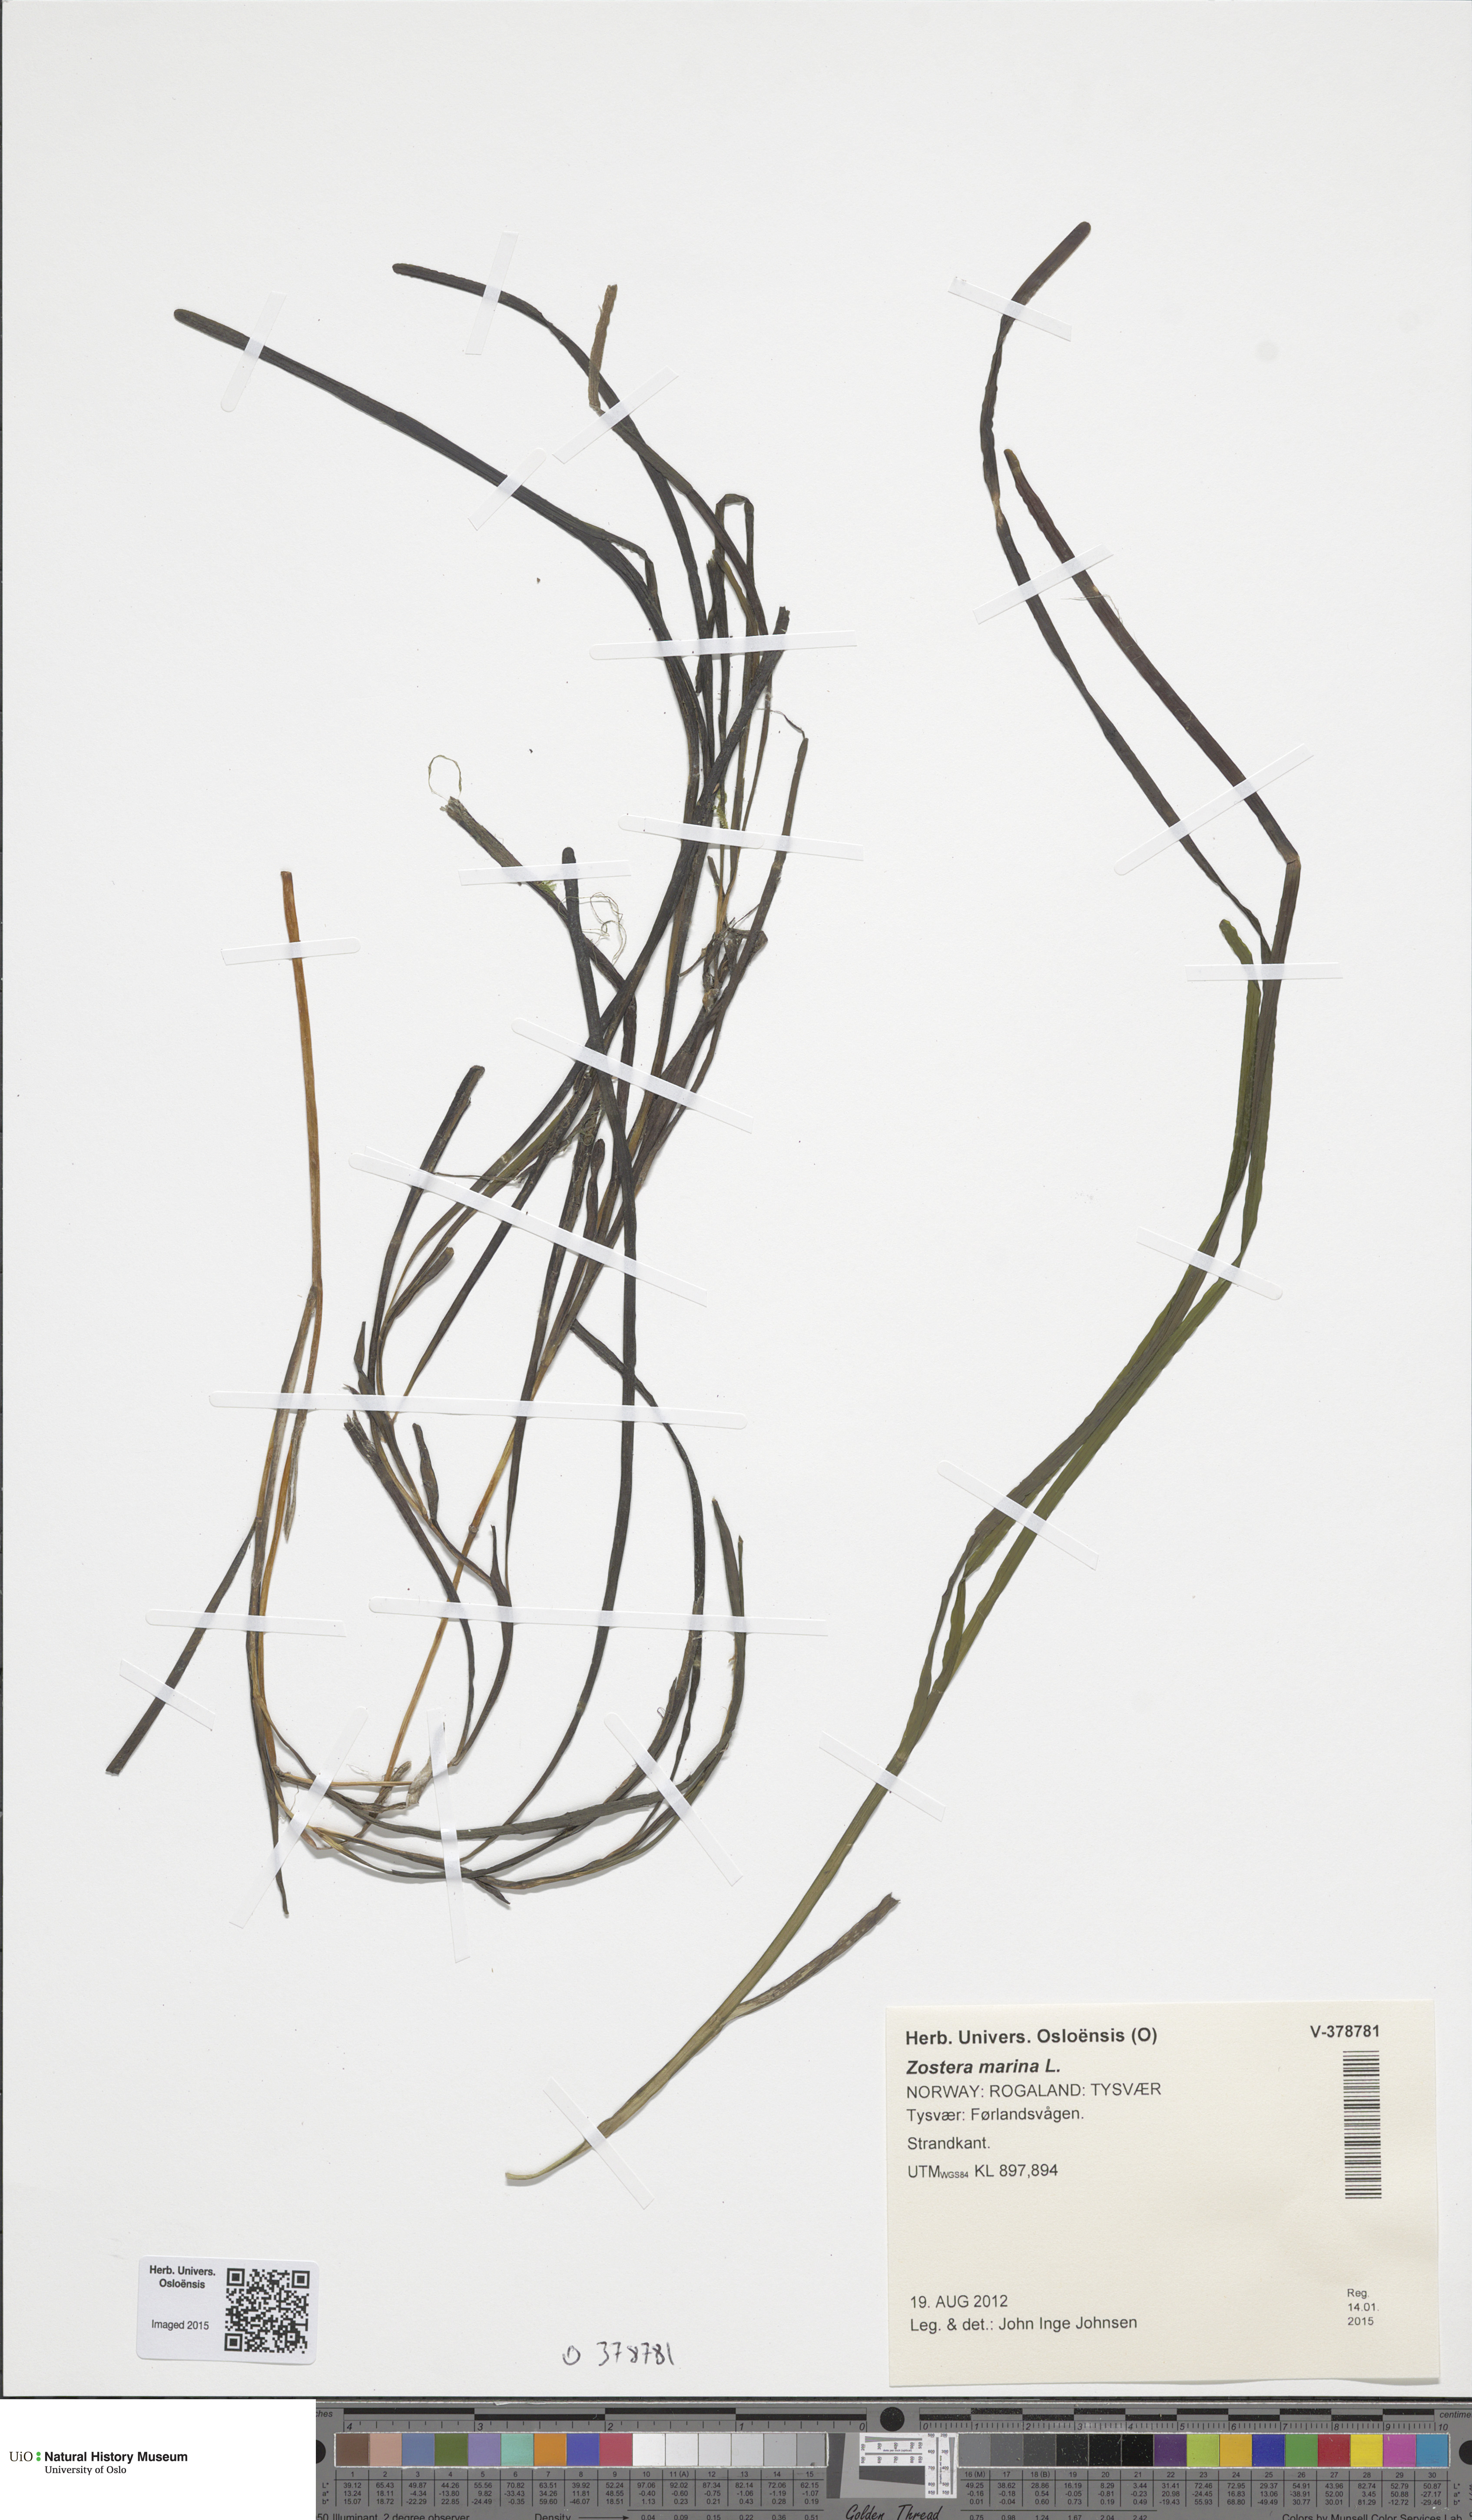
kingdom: Plantae
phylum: Tracheophyta
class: Liliopsida
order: Alismatales
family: Zosteraceae
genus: Zostera
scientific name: Zostera angustifolia
